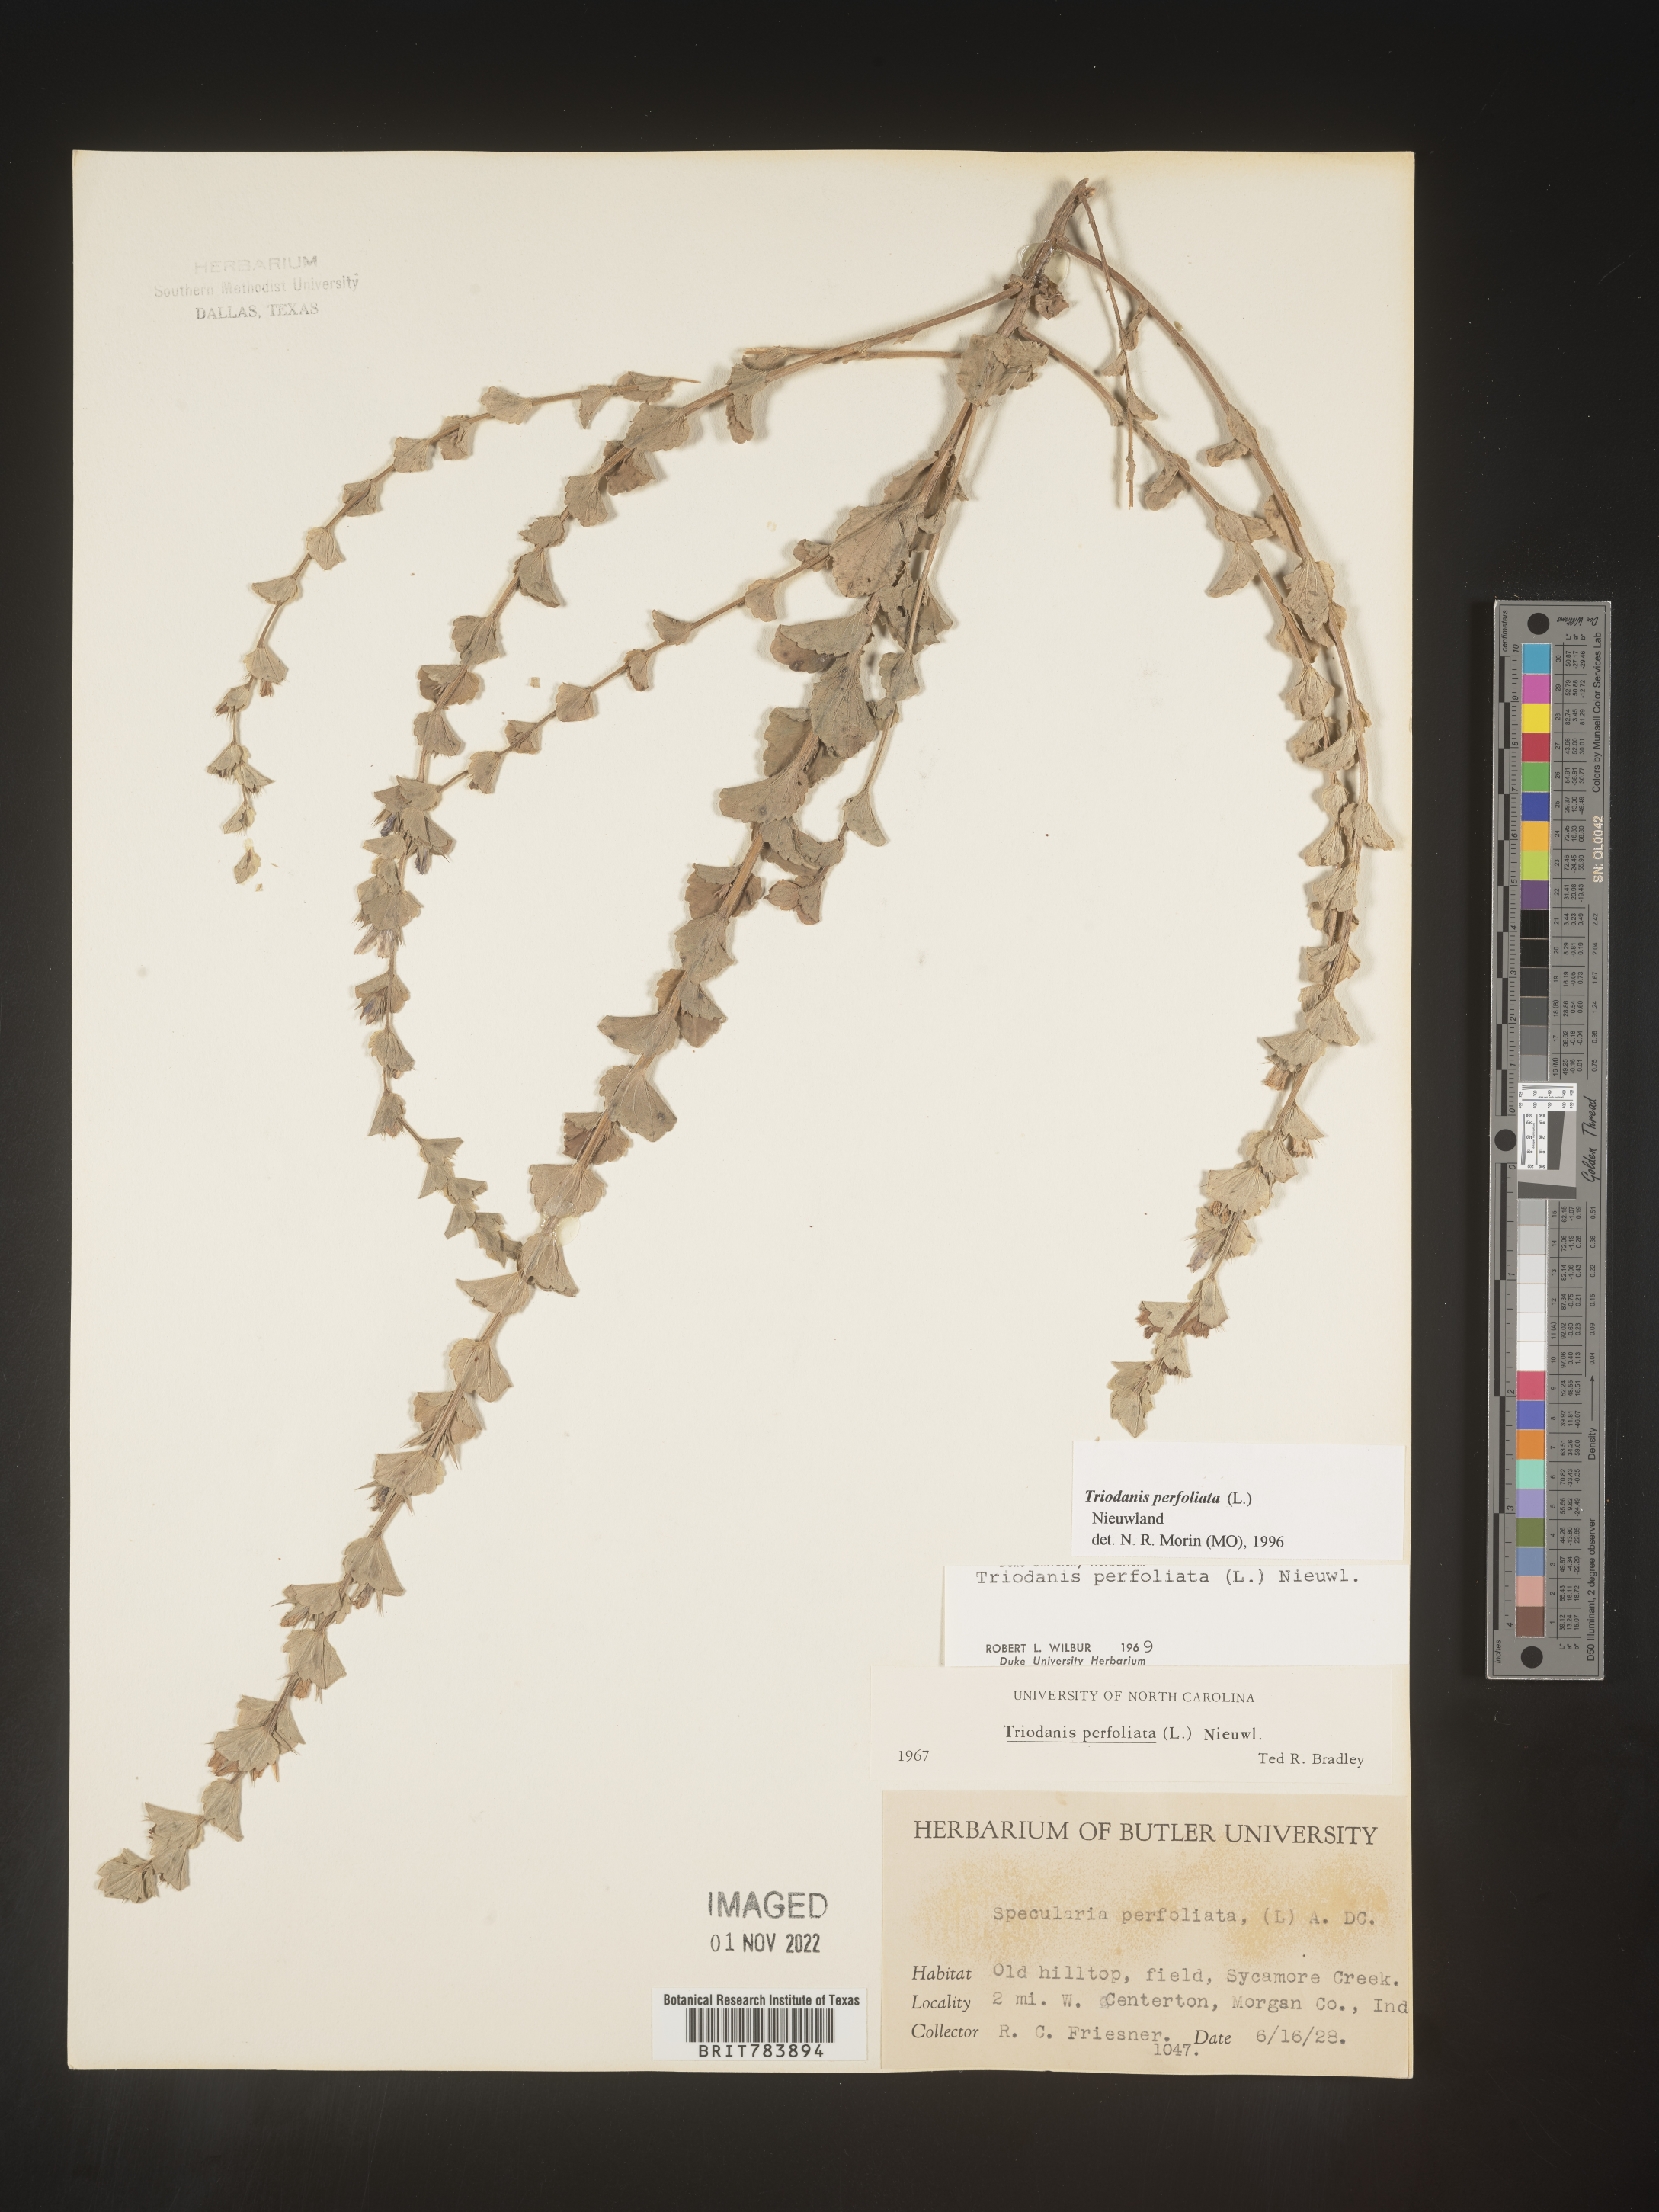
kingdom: Plantae
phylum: Tracheophyta
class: Magnoliopsida
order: Asterales
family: Campanulaceae
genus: Triodanis
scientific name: Triodanis perfoliata
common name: Clasping venus' looking-glass
